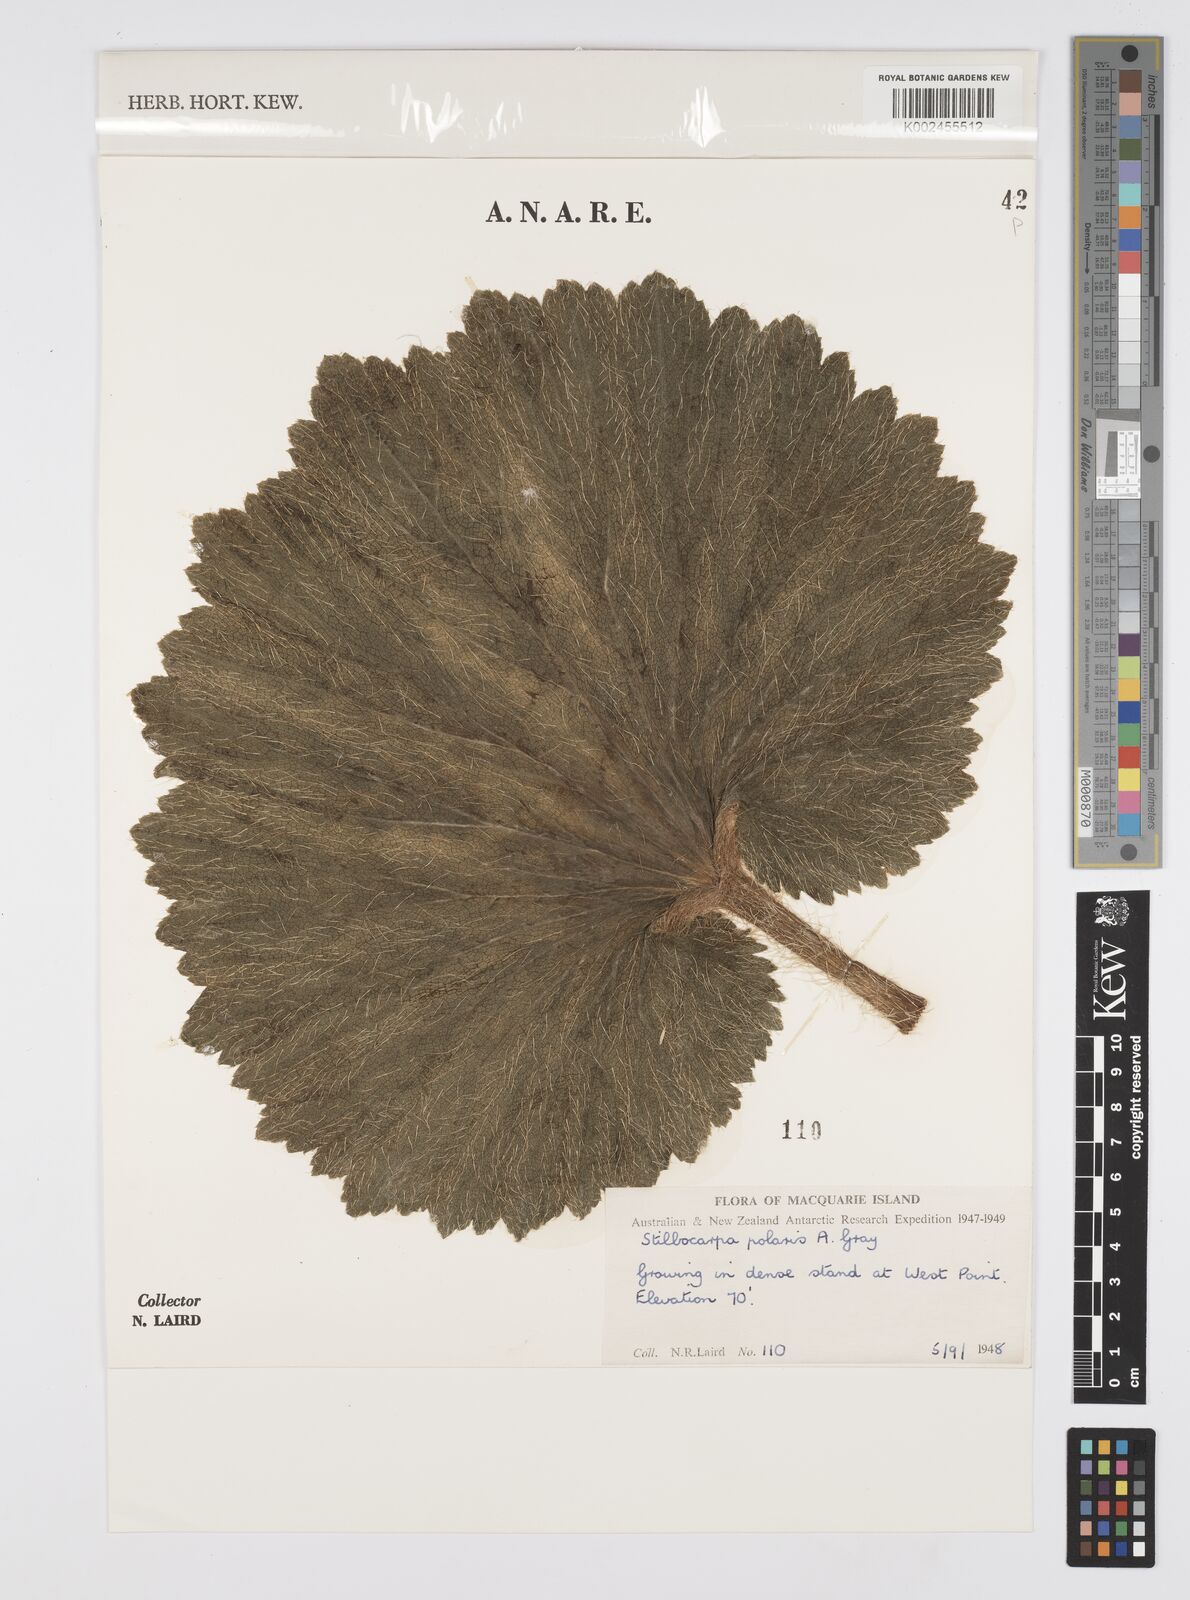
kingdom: Plantae
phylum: Tracheophyta
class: Magnoliopsida
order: Apiales
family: Araliaceae
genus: Stilbocarpa
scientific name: Stilbocarpa
